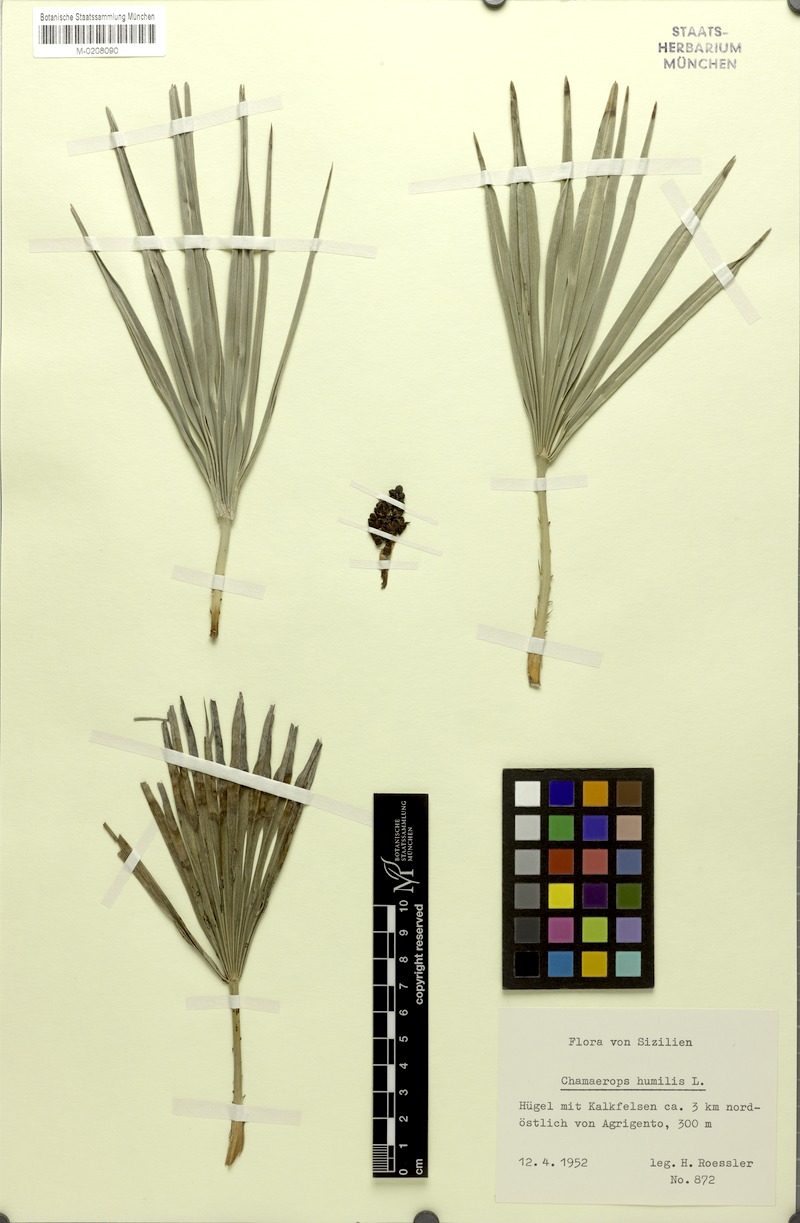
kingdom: Plantae
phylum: Tracheophyta
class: Liliopsida
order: Arecales
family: Arecaceae
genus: Chamaerops
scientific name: Chamaerops humilis
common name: Dwarf fan palm
